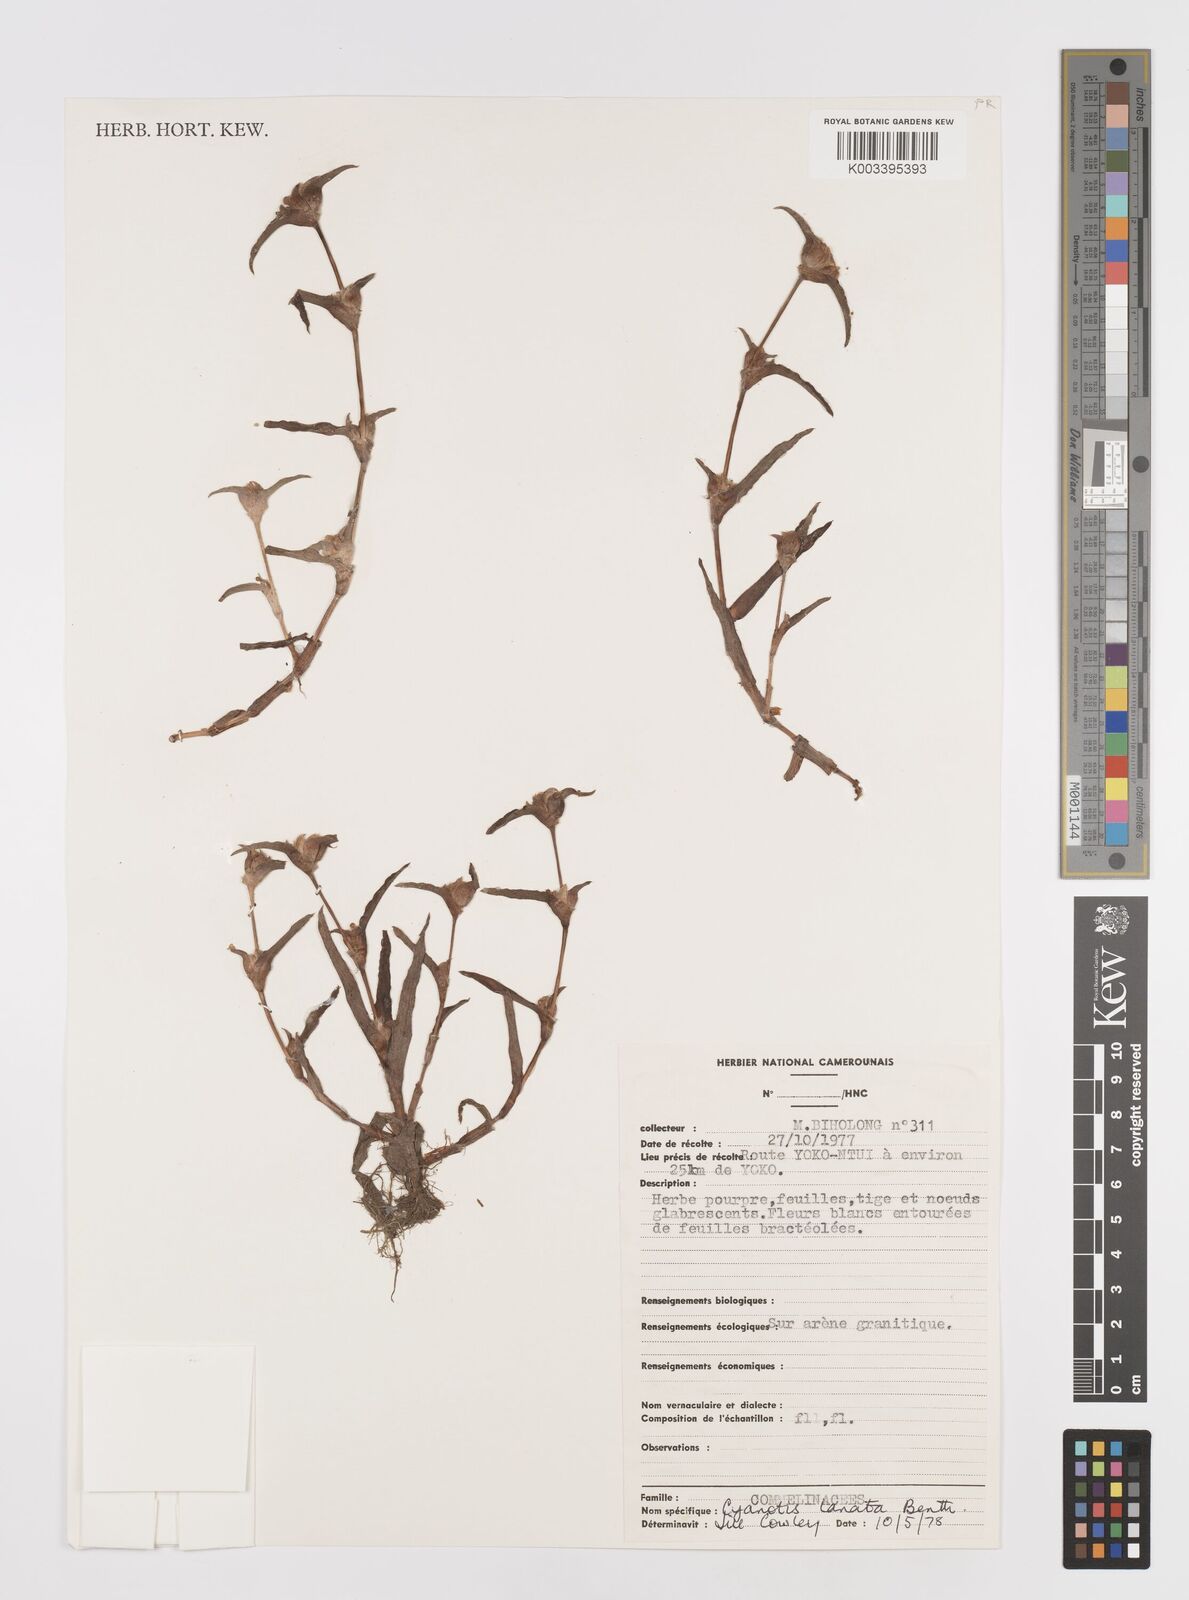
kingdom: Plantae
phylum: Tracheophyta
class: Liliopsida
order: Commelinales
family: Commelinaceae
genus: Cyanotis
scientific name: Cyanotis lanata
